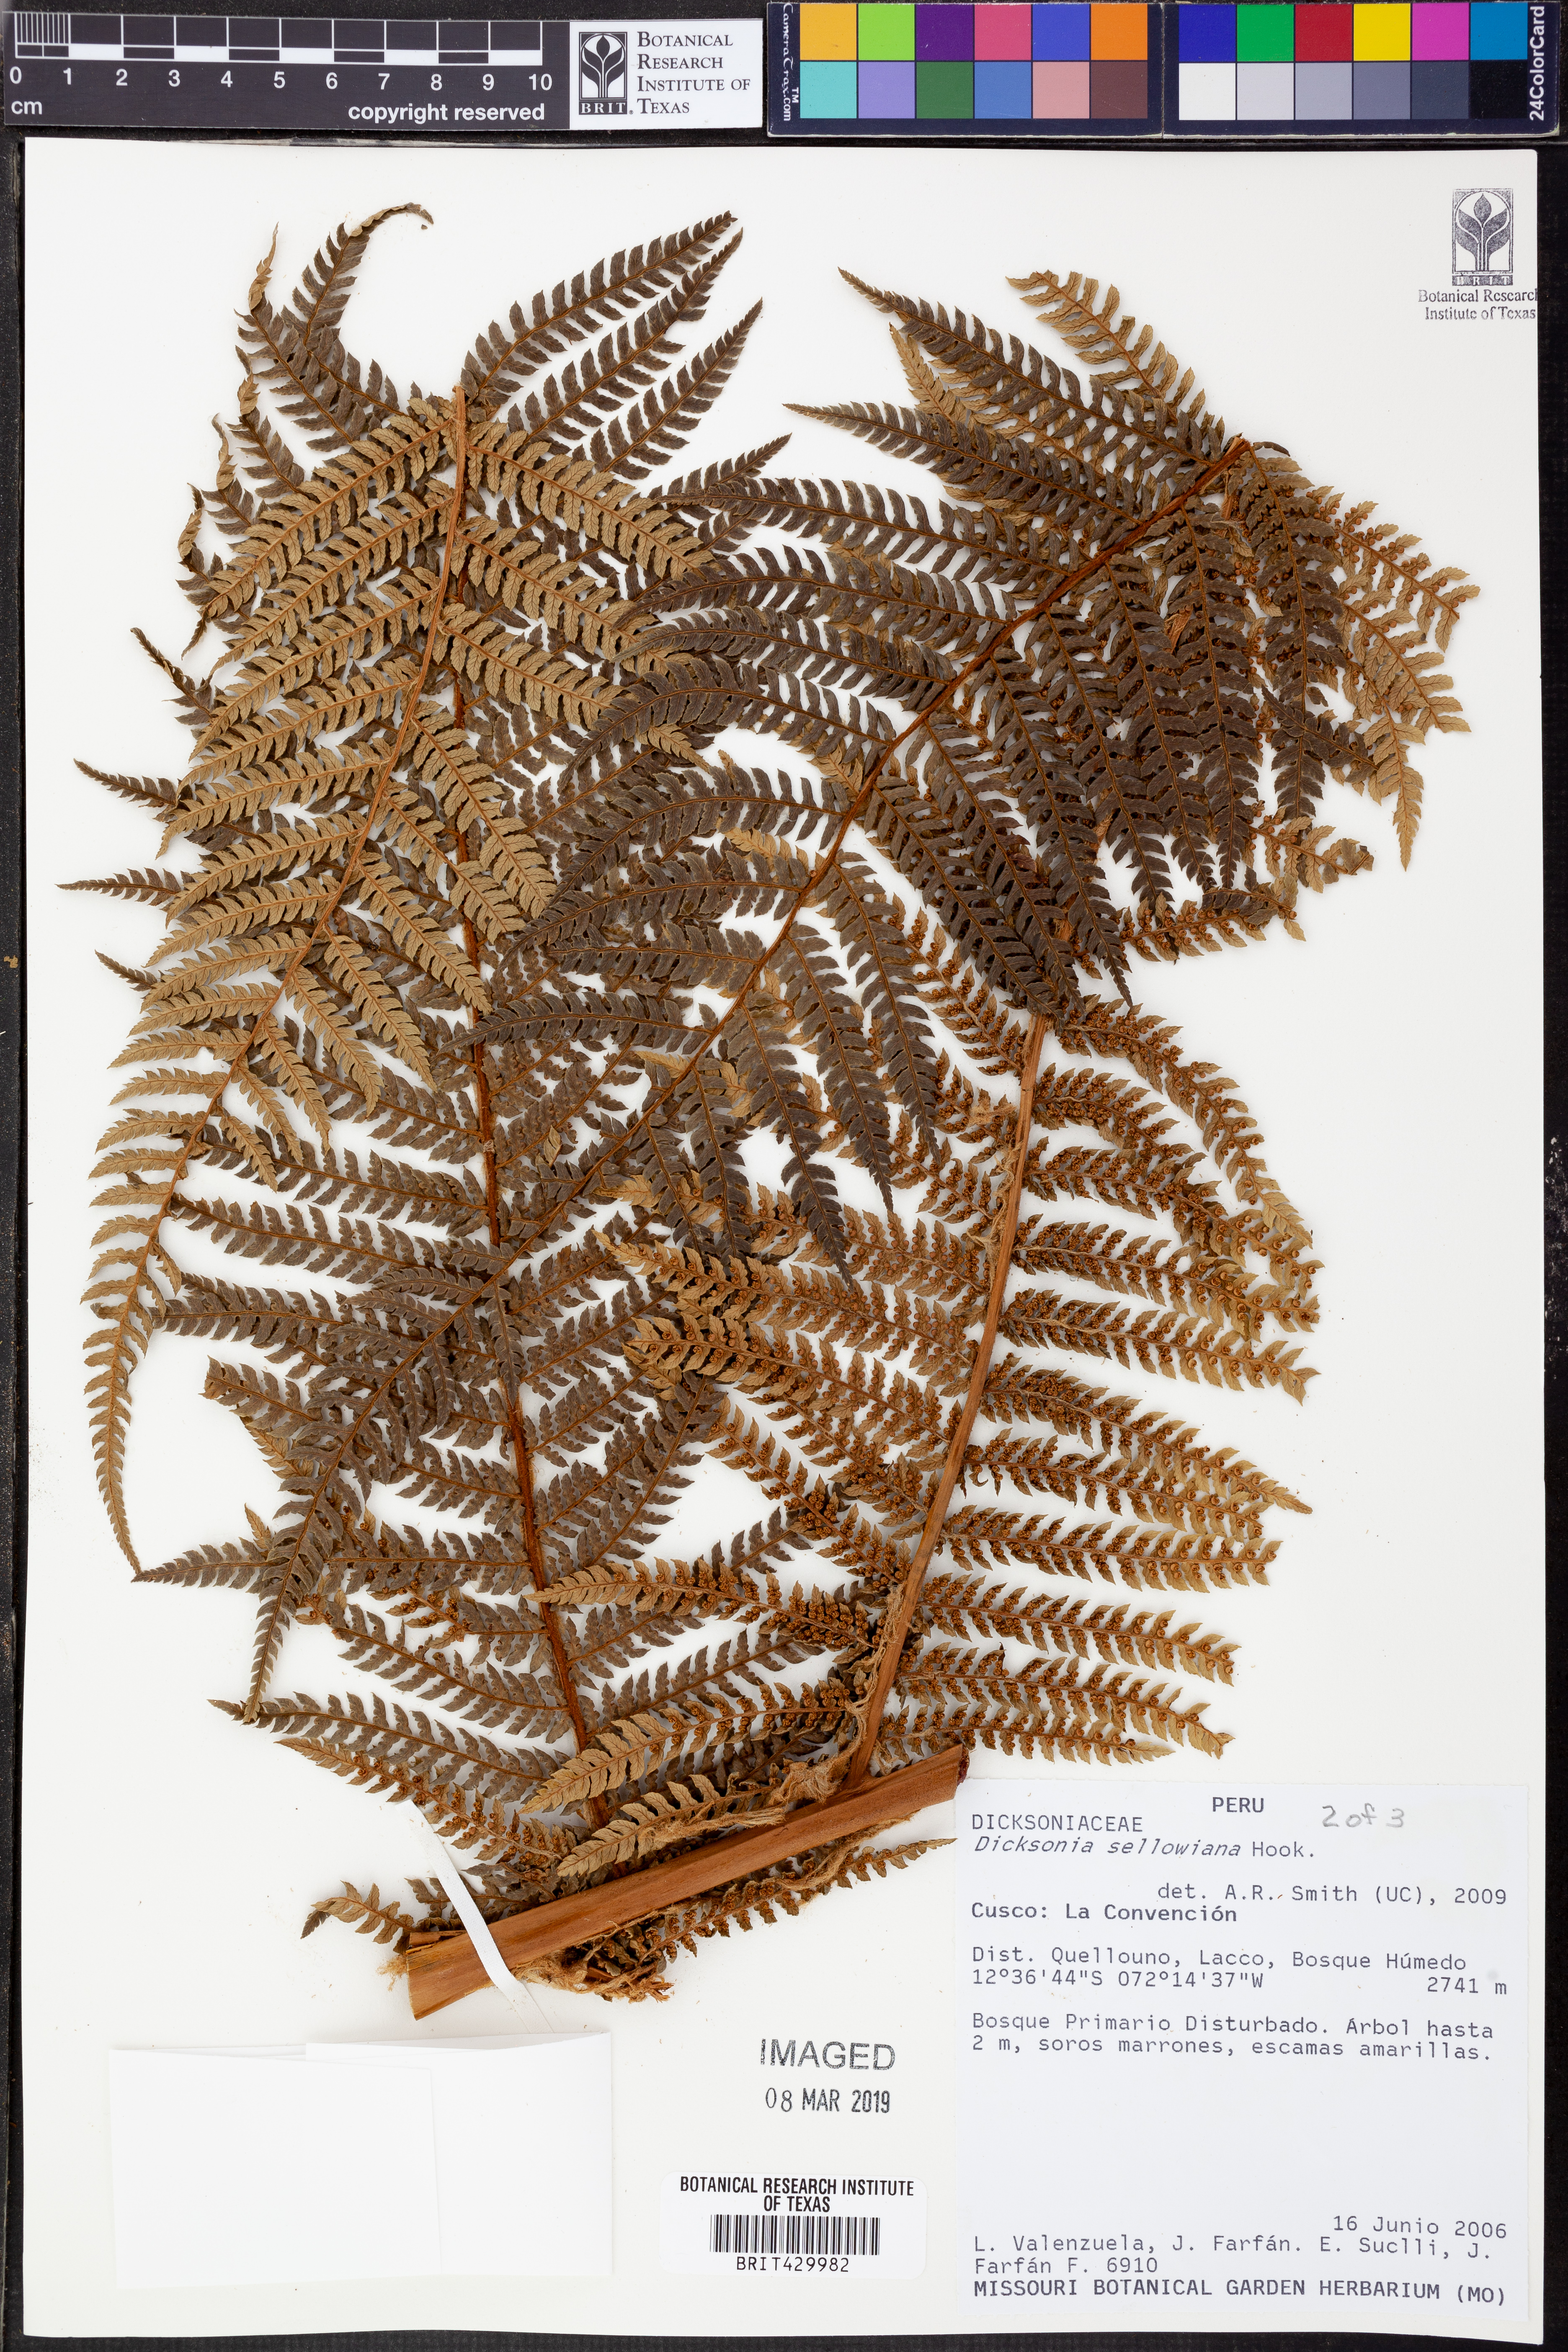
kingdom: Plantae
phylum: Tracheophyta
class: Polypodiopsida
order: Cyatheales
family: Dicksoniaceae
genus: Dicksonia
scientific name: Dicksonia sellowiana
